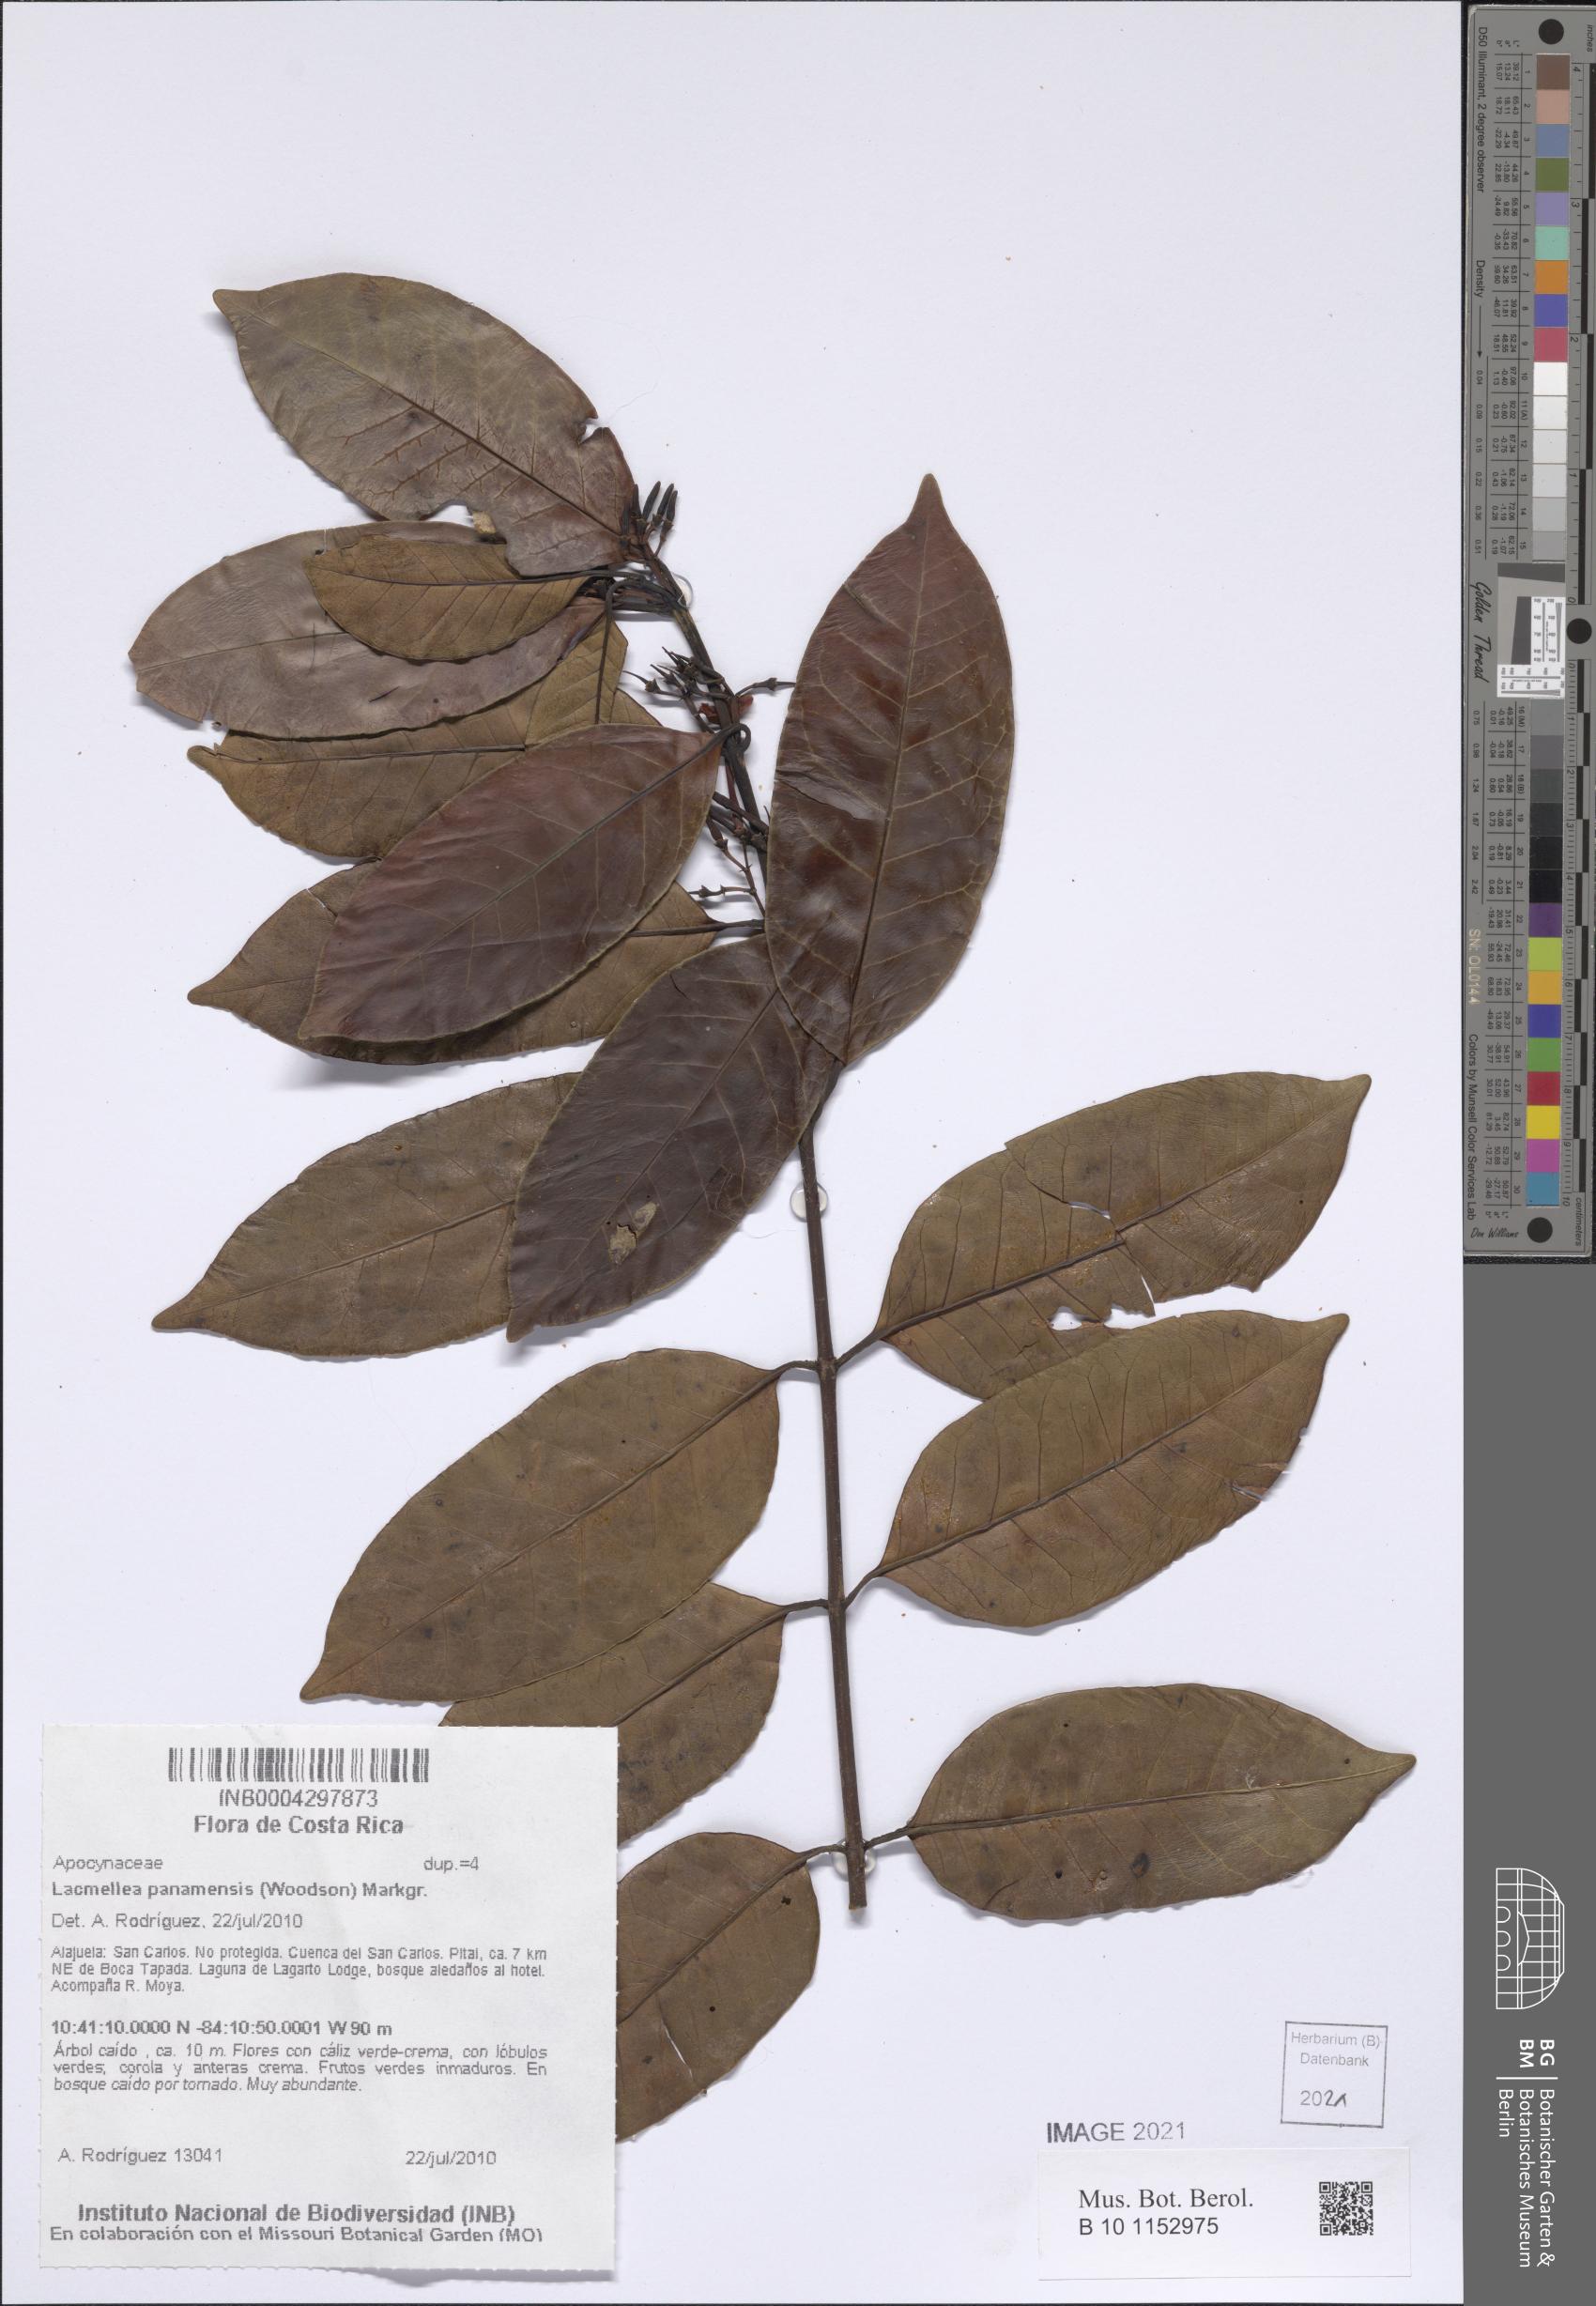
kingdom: Plantae
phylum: Tracheophyta
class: Magnoliopsida
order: Gentianales
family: Apocynaceae
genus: Lacmellea
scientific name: Lacmellea panamensis
